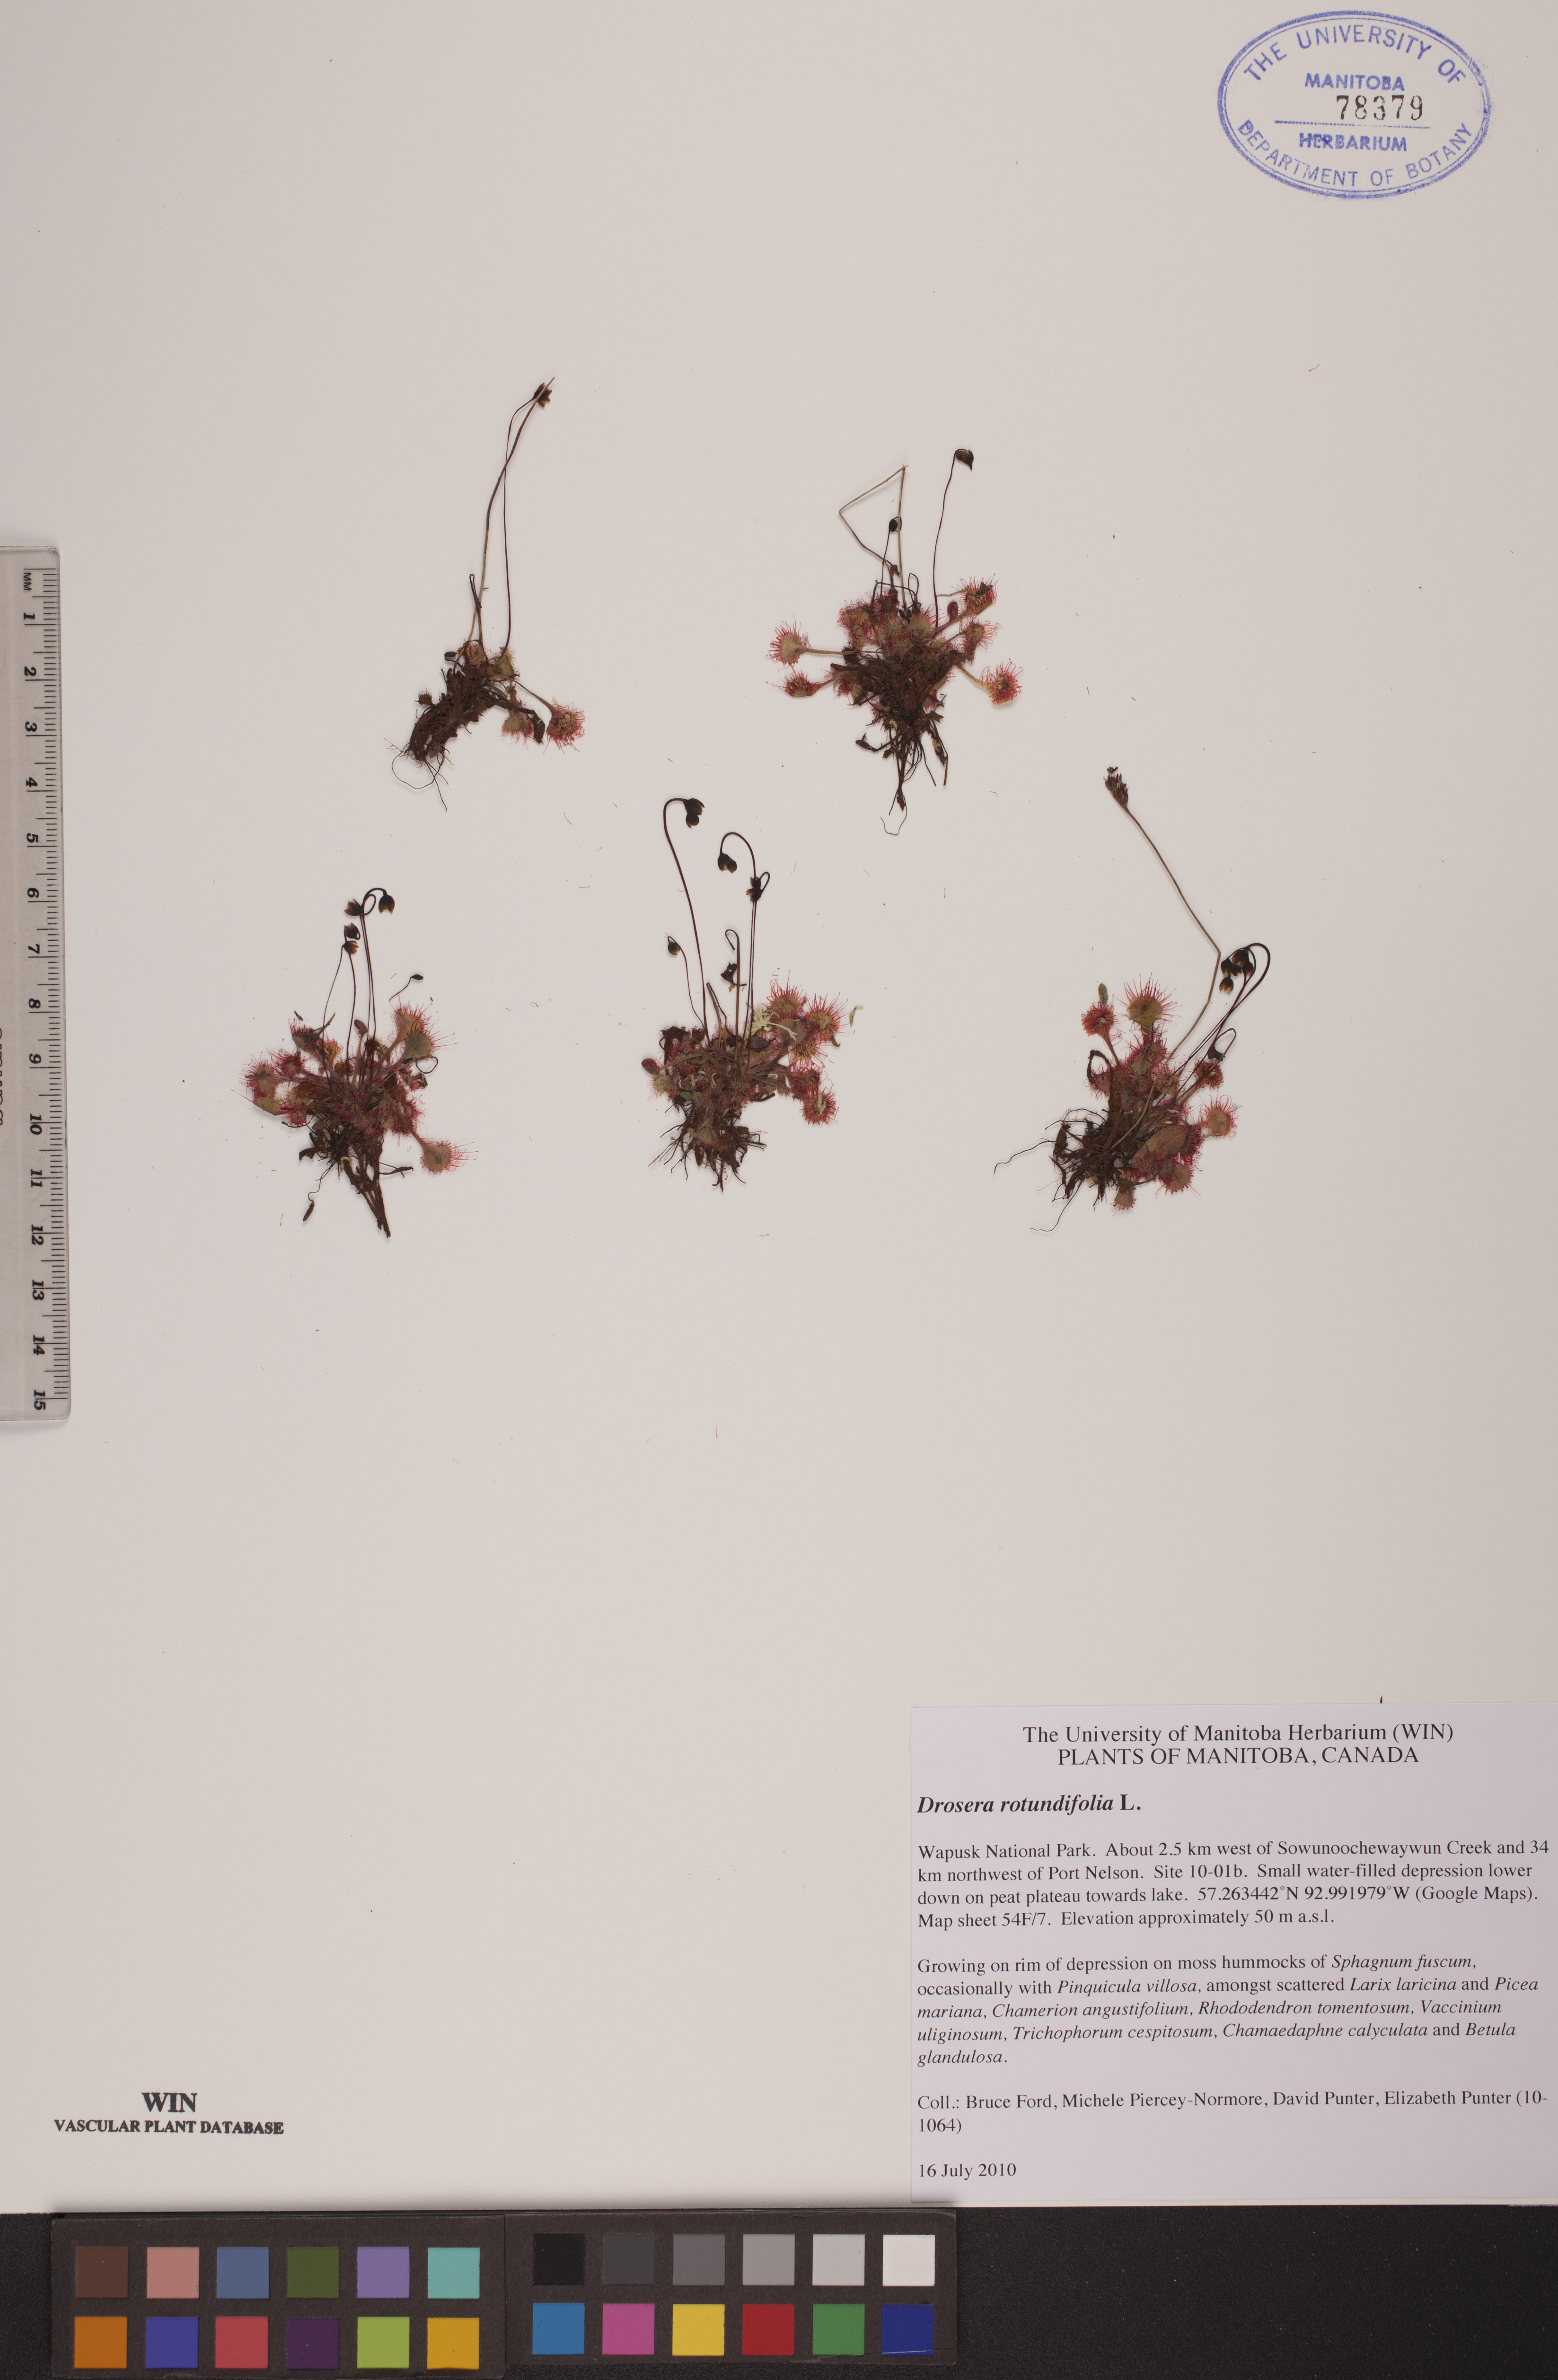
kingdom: Plantae
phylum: Tracheophyta
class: Magnoliopsida
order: Caryophyllales
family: Droseraceae
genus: Drosera
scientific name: Drosera rotundifolia
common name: Round-leaved sundew
